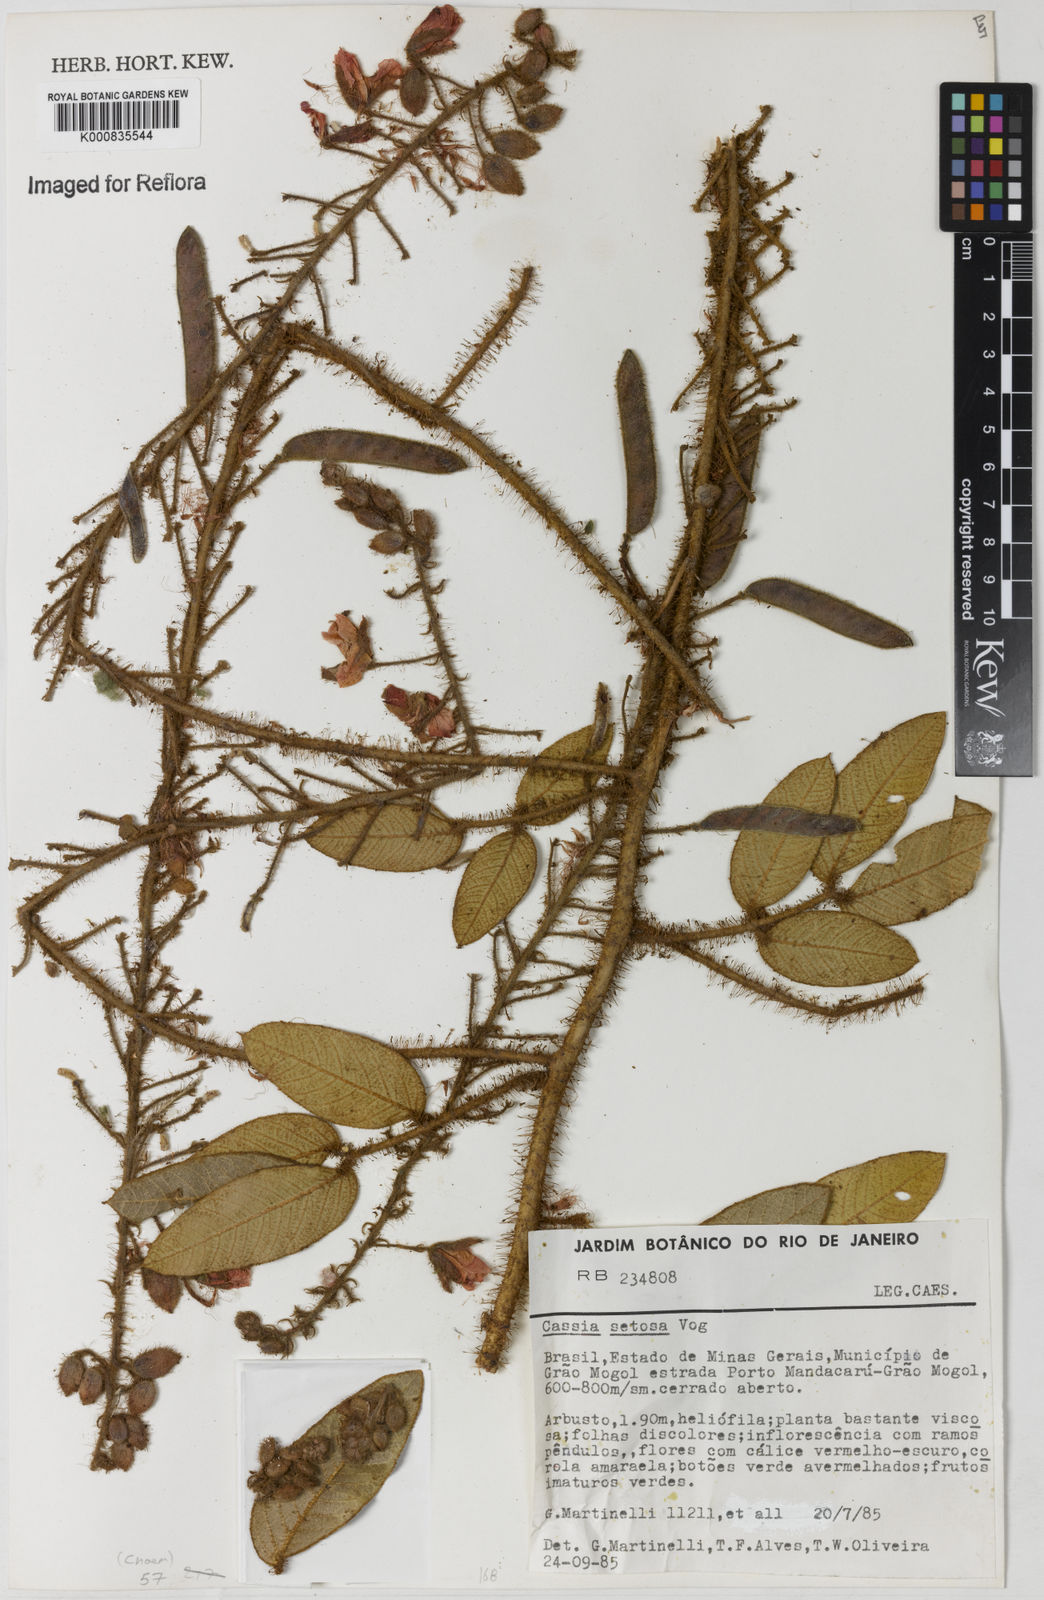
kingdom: Plantae
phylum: Tracheophyta
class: Magnoliopsida
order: Fabales
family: Fabaceae
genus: Chamaecrista
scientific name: Chamaecrista setosa
